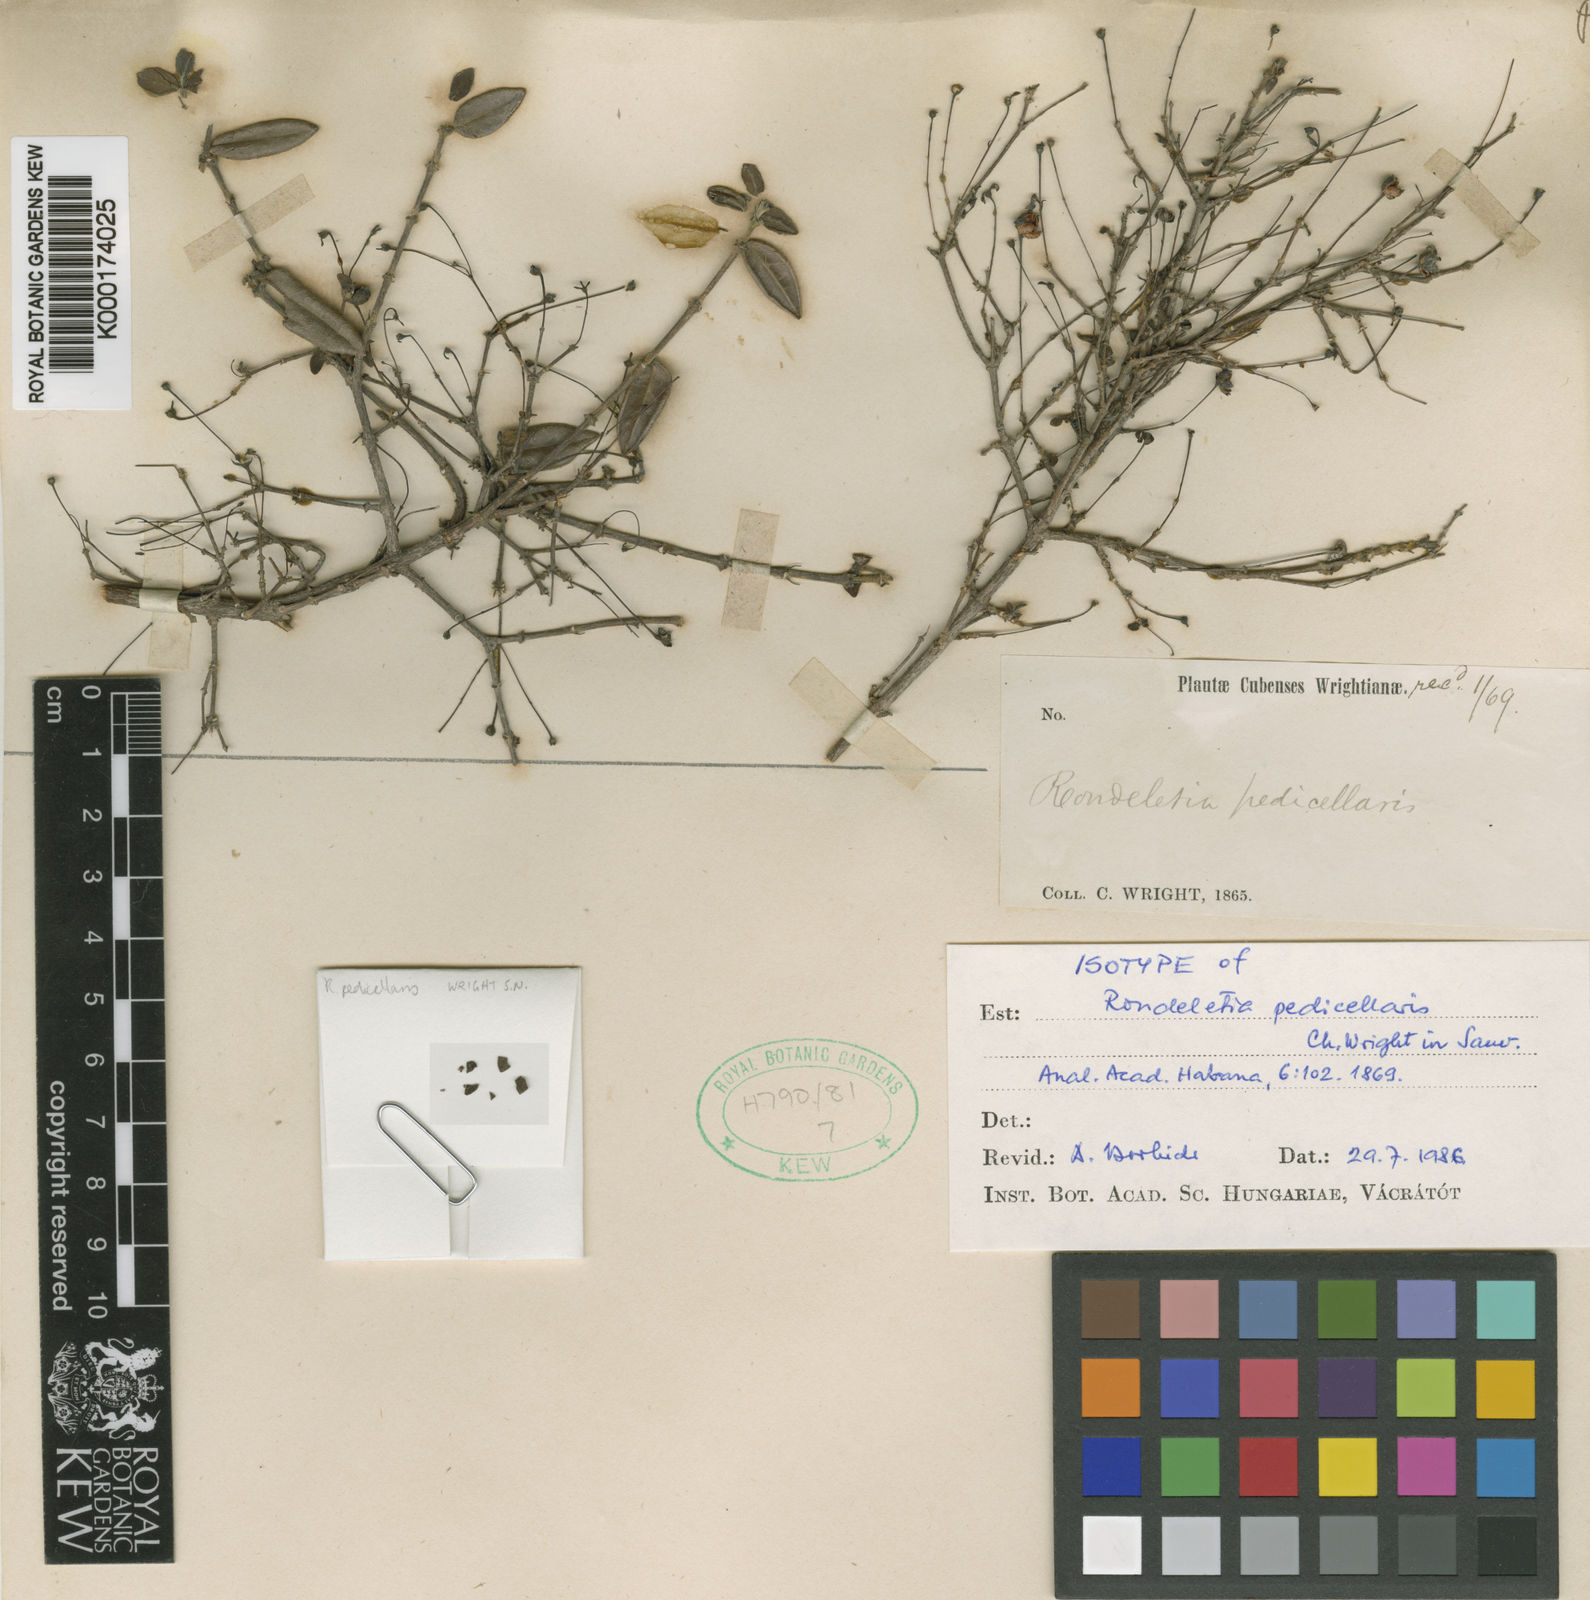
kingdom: Plantae
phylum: Tracheophyta
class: Magnoliopsida
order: Gentianales
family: Rubiaceae
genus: Rondeletia
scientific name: Rondeletia pedicellaris
